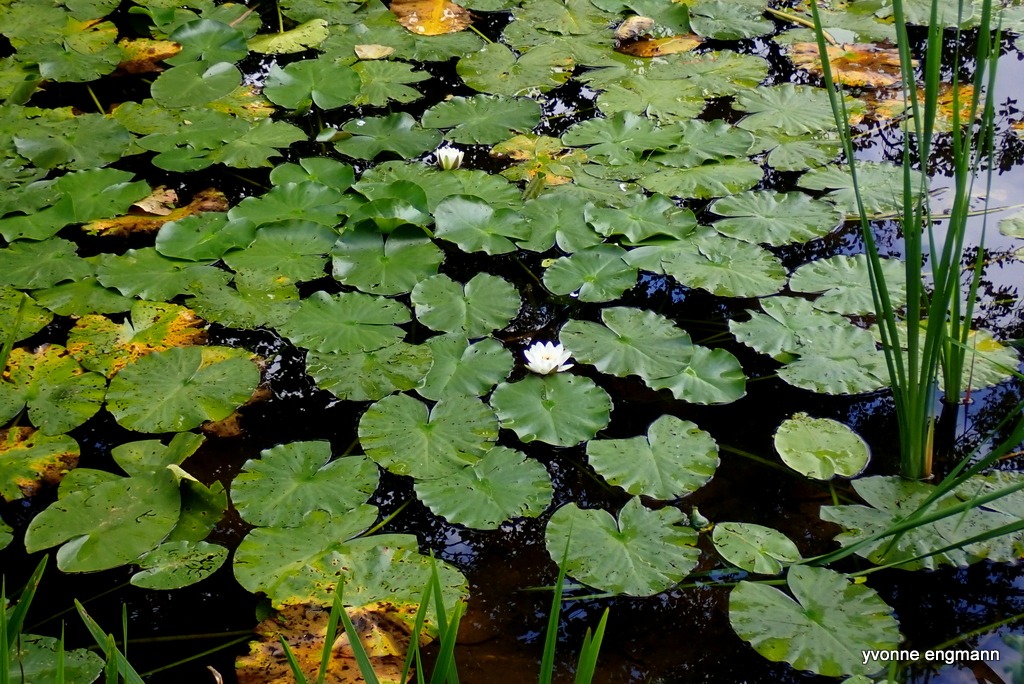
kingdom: Plantae
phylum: Tracheophyta
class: Magnoliopsida
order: Nymphaeales
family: Nymphaeaceae
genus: Nymphaea
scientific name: Nymphaea alba
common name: Hvid åkande
